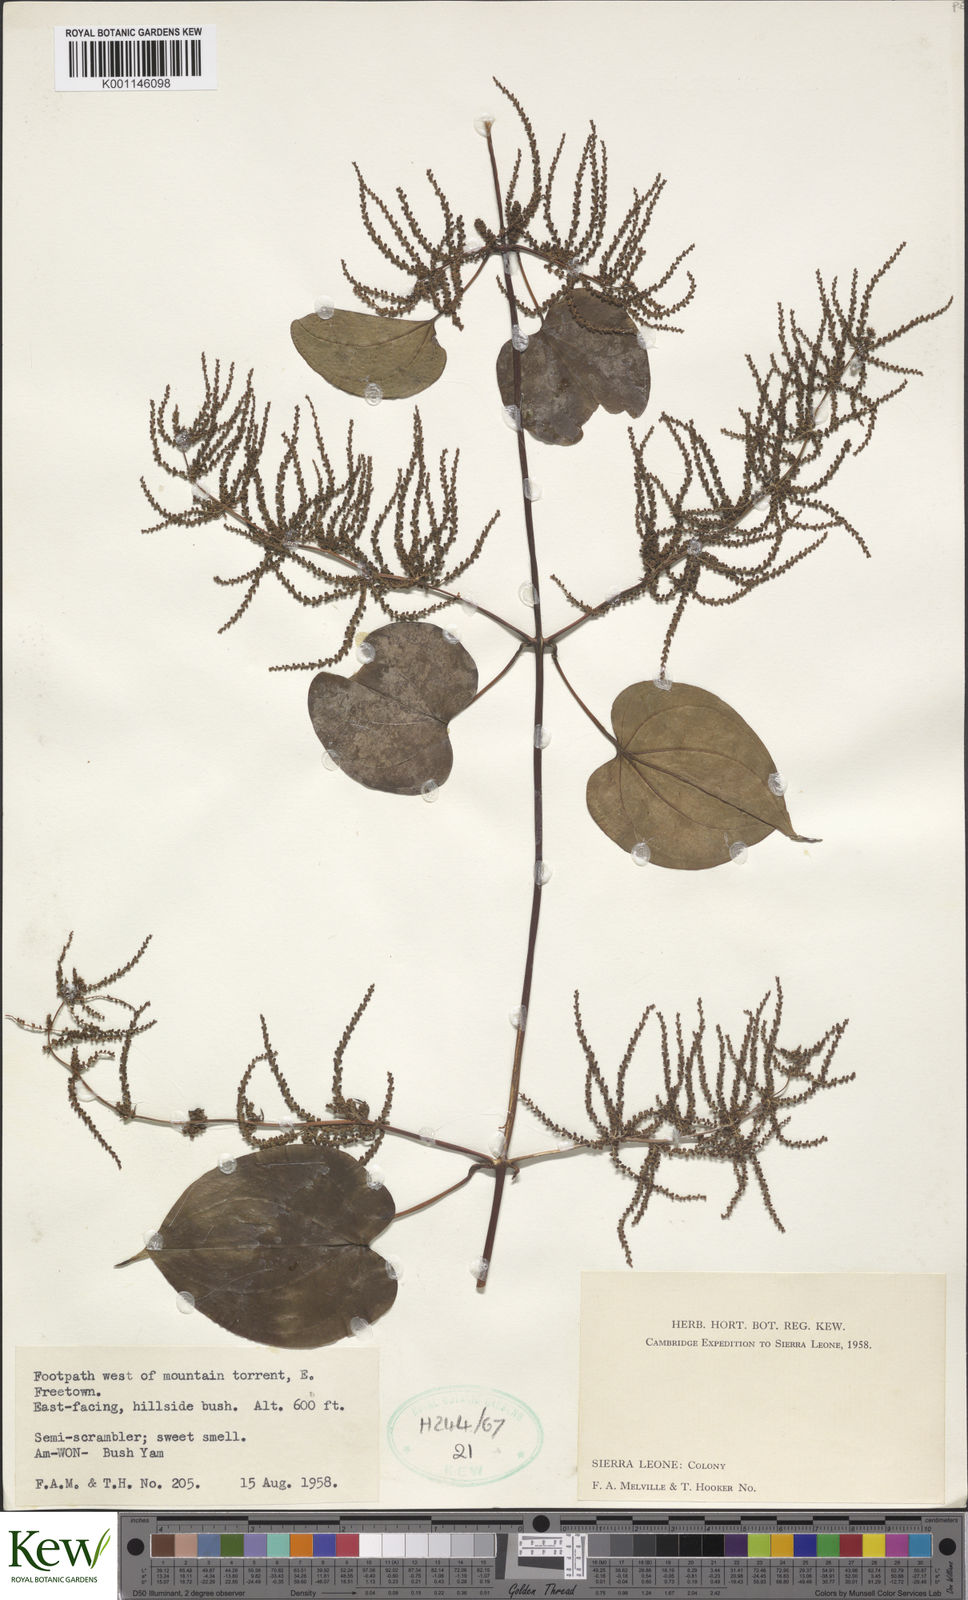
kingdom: Plantae
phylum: Tracheophyta
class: Liliopsida
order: Dioscoreales
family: Dioscoreaceae
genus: Dioscorea
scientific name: Dioscorea
